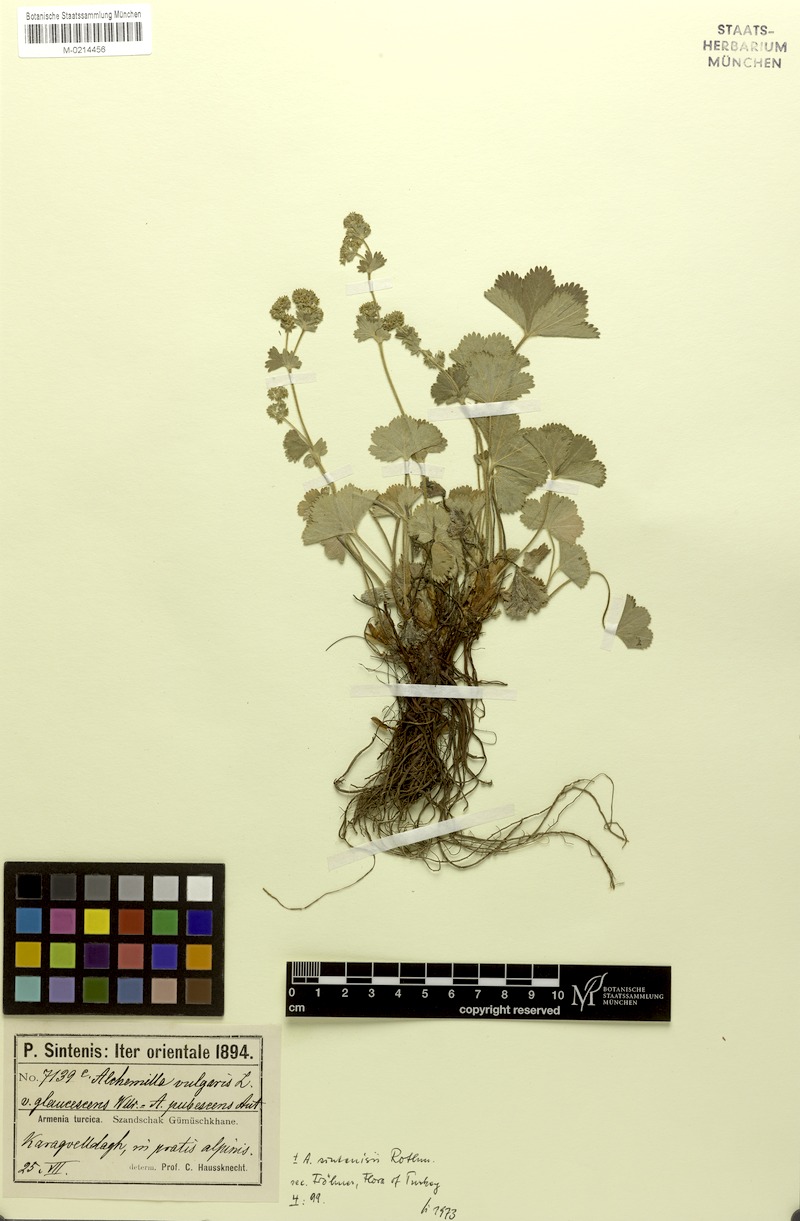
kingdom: Plantae
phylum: Tracheophyta
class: Magnoliopsida
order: Rosales
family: Rosaceae
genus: Alchemilla
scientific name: Alchemilla sintenisii
